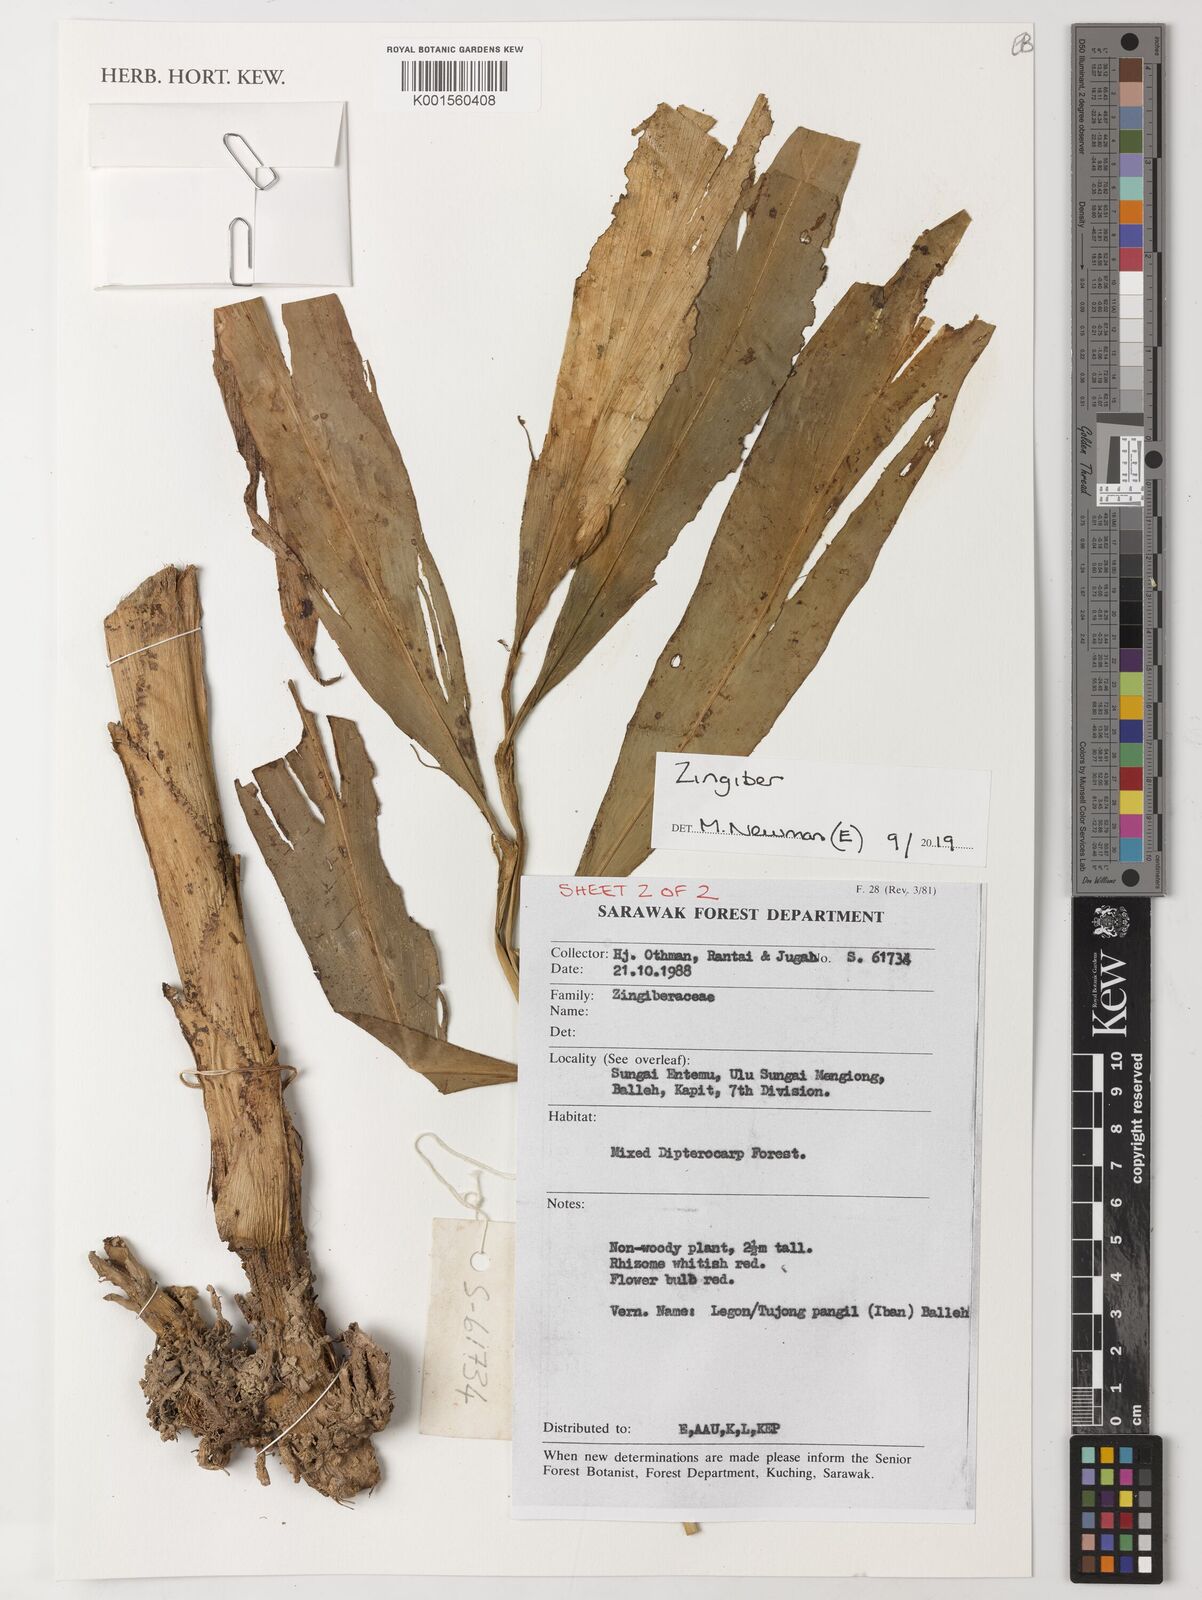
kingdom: Plantae
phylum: Tracheophyta
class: Liliopsida
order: Zingiberales
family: Zingiberaceae
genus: Zingiber
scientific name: Zingiber
